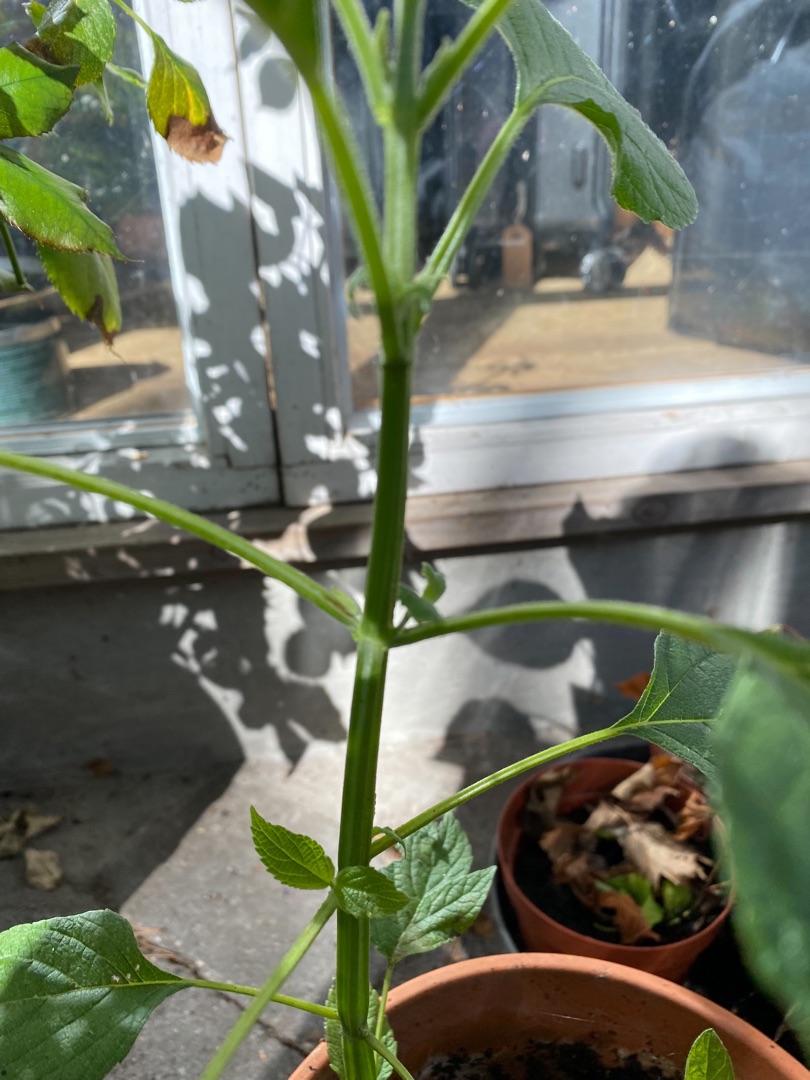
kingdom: Plantae
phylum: Tracheophyta
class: Magnoliopsida
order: Lamiales
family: Lamiaceae
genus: Salvia
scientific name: Salvia hispanica
